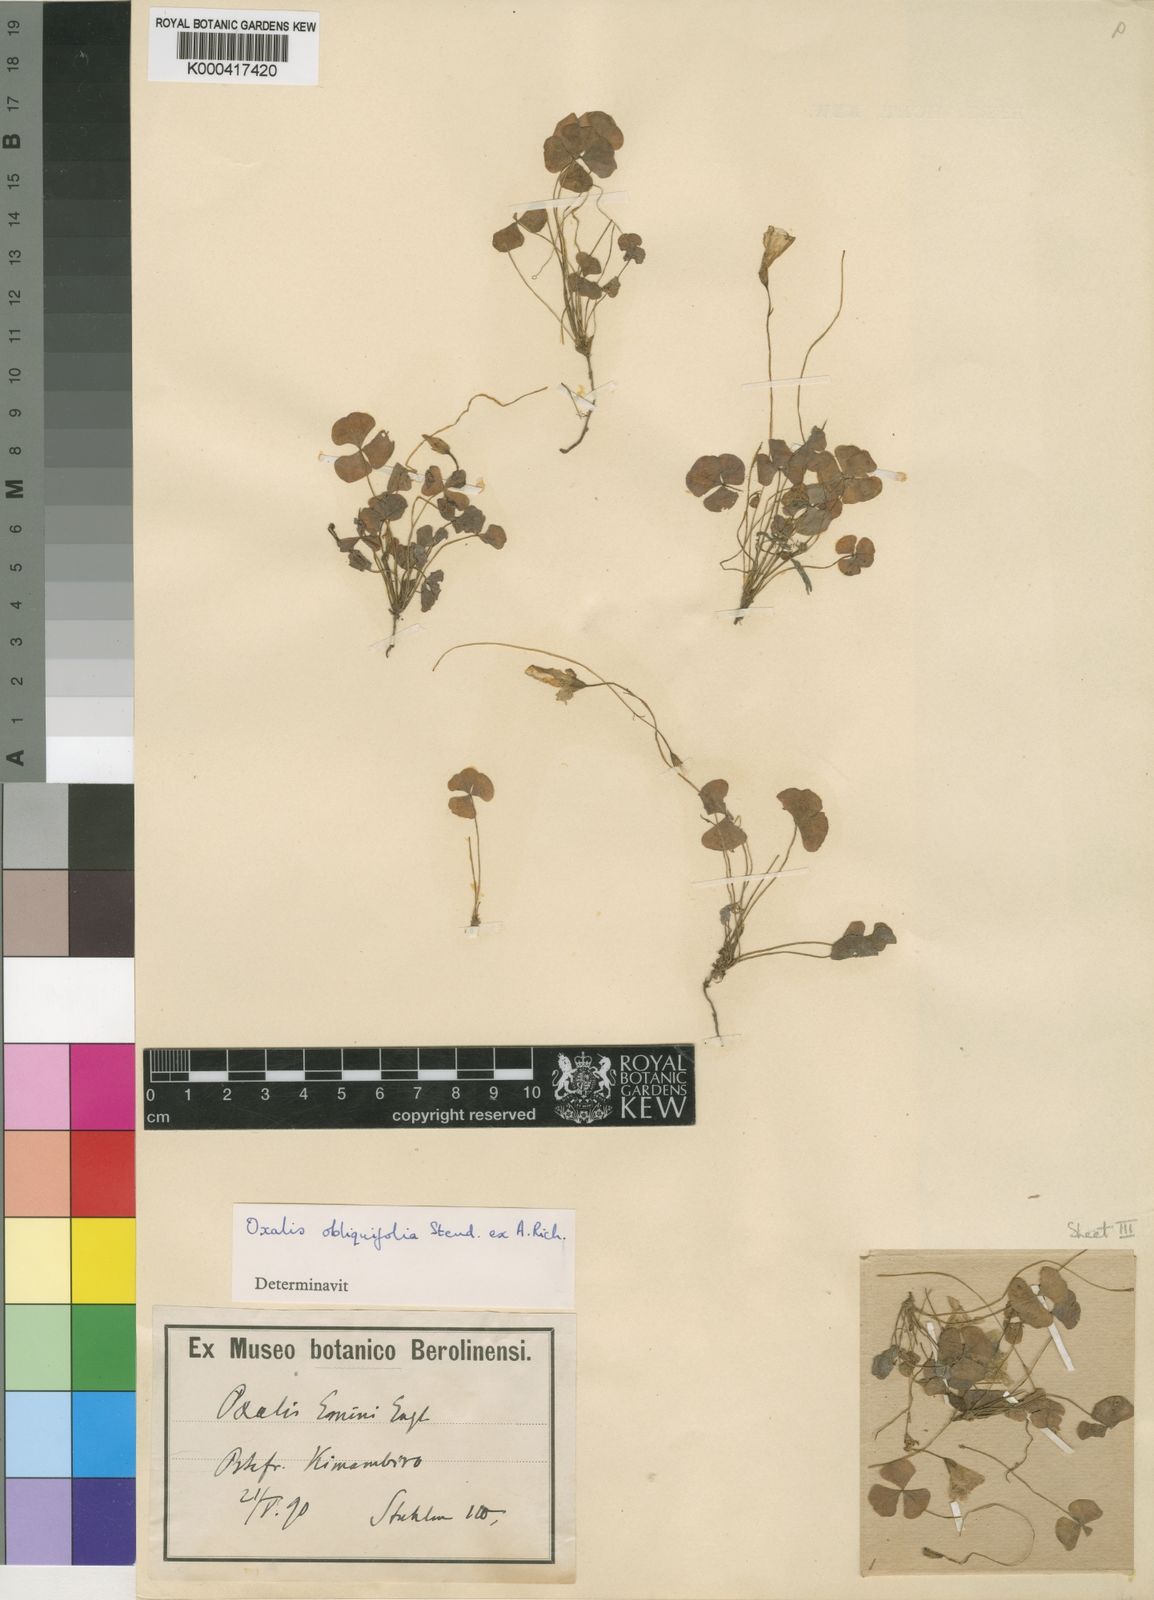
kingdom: Plantae
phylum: Tracheophyta
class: Magnoliopsida
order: Oxalidales
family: Oxalidaceae
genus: Oxalis
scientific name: Oxalis obliquifolia
